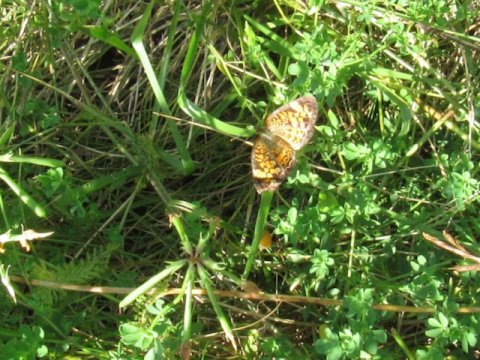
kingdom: Animalia
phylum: Arthropoda
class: Insecta
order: Lepidoptera
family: Nymphalidae
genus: Phyciodes
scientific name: Phyciodes tharos
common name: Pearl Crescent
